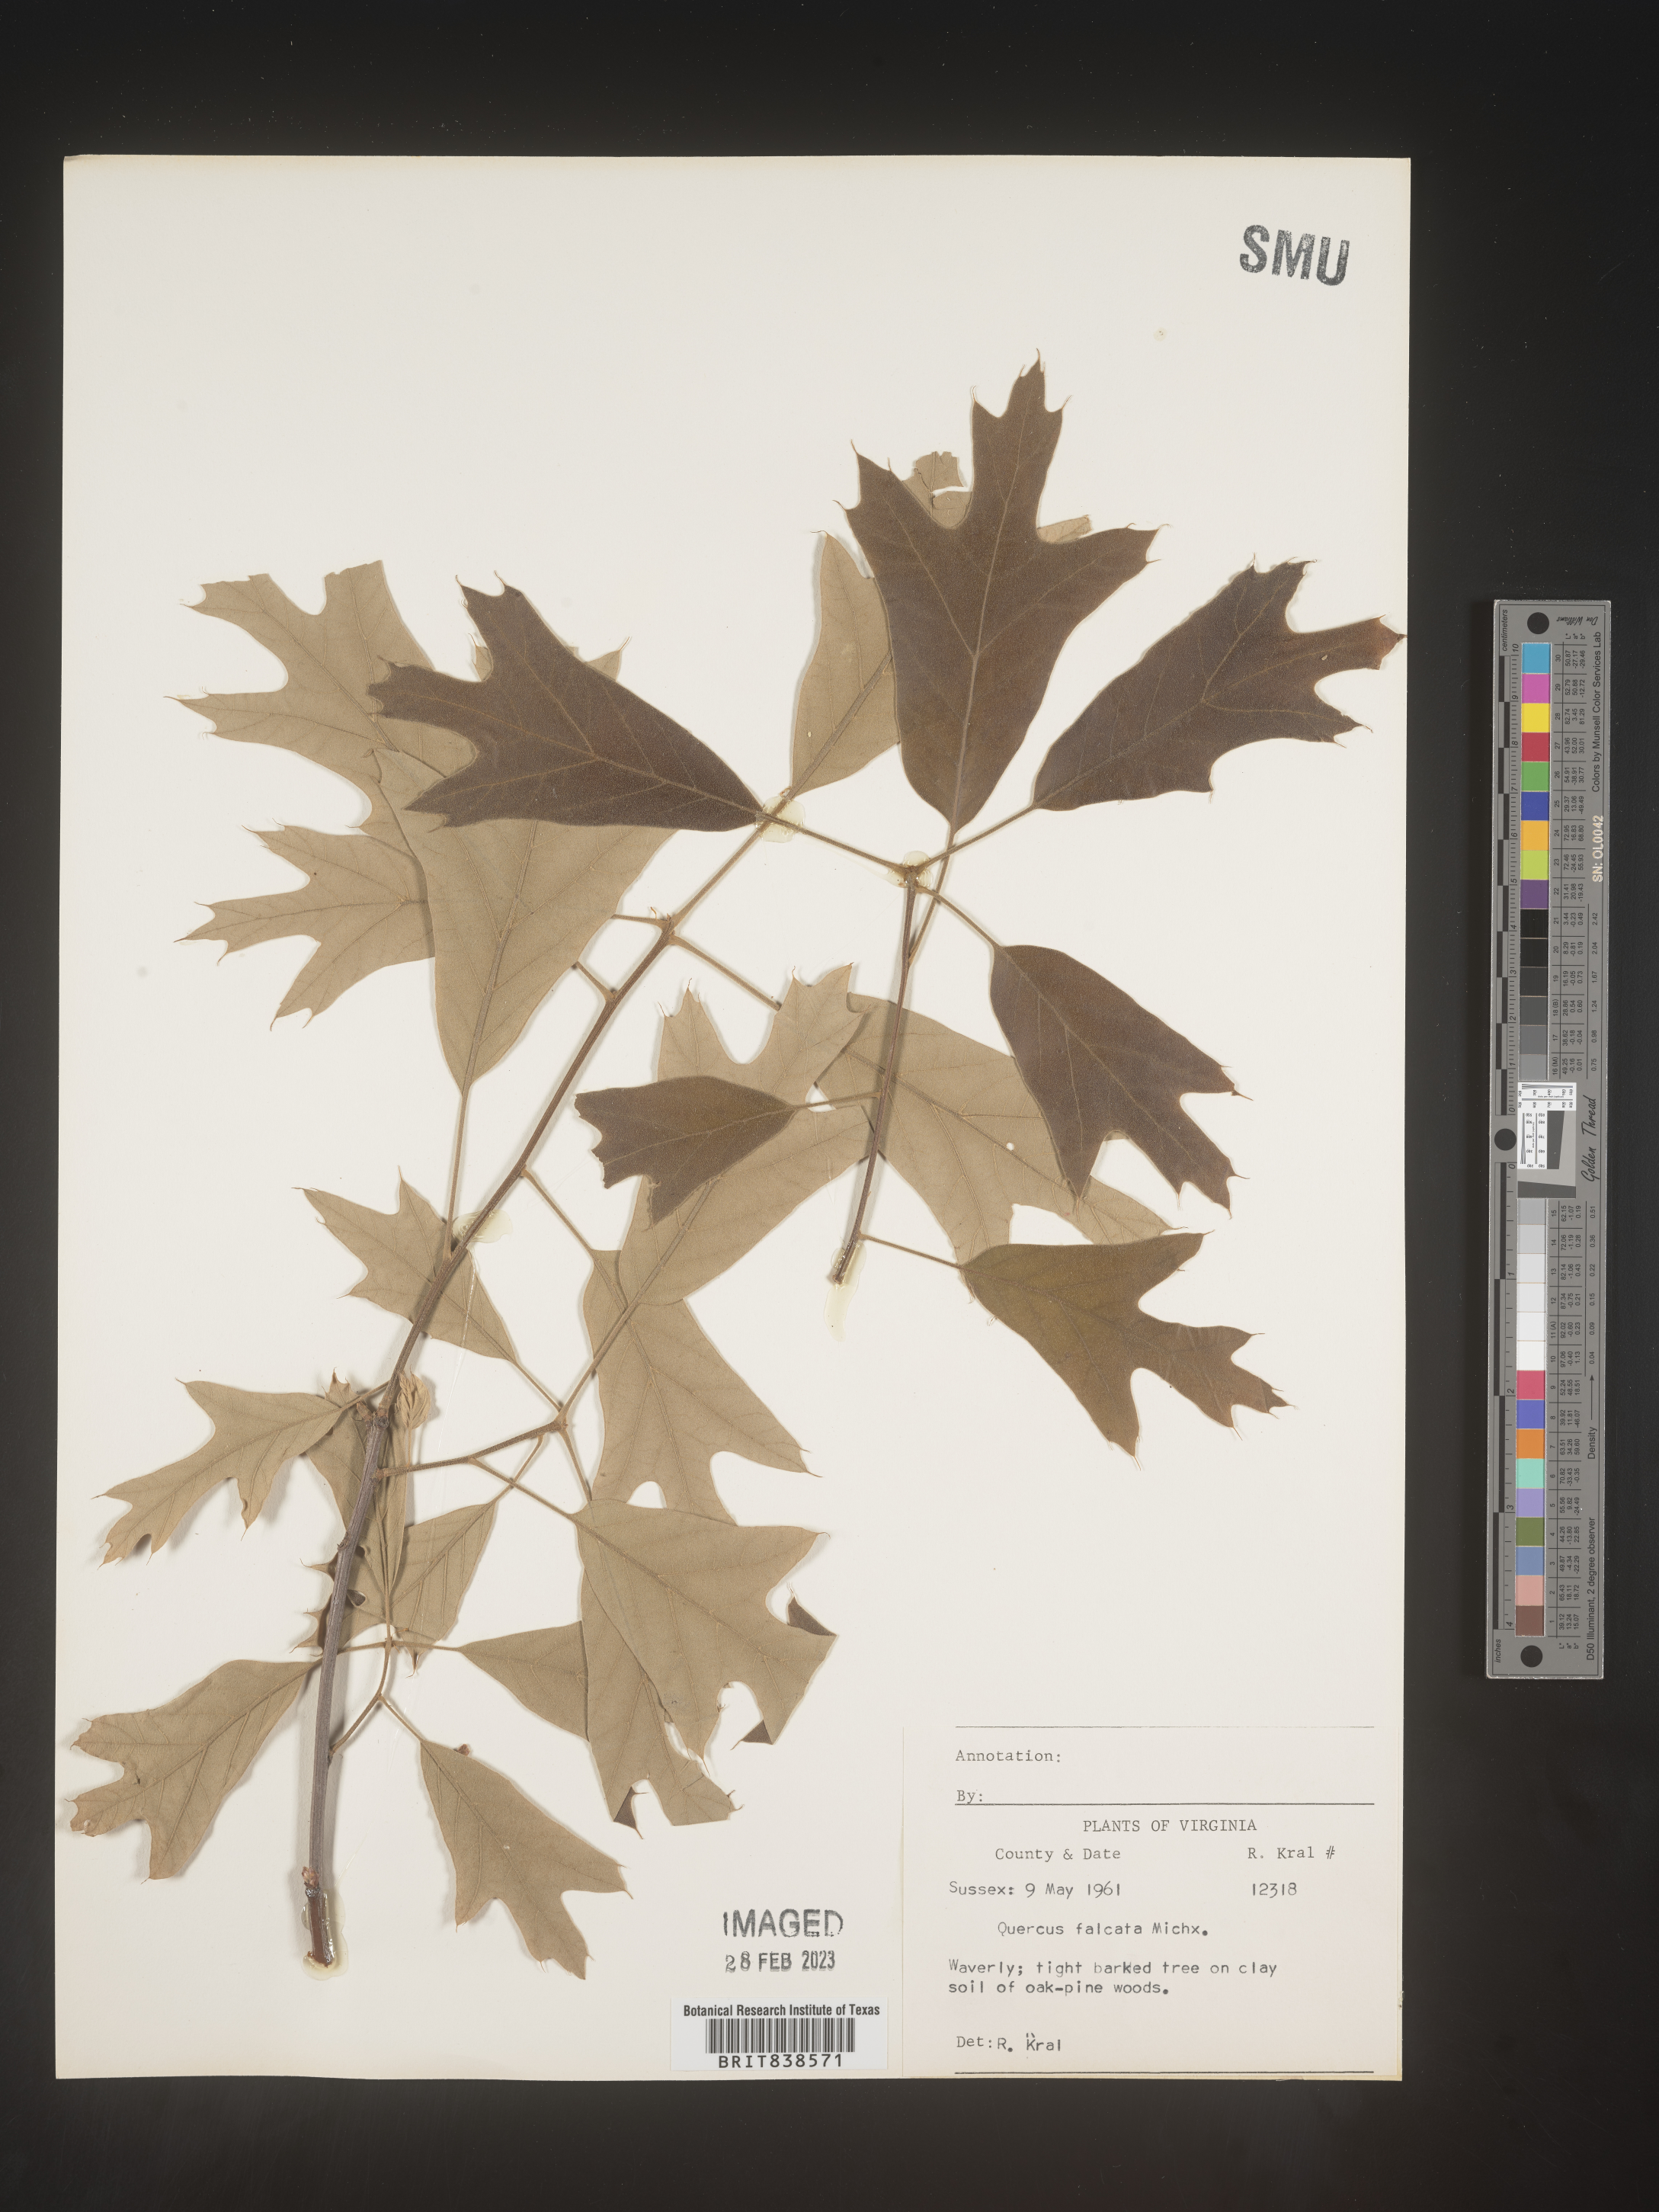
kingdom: Plantae
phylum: Tracheophyta
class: Magnoliopsida
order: Fagales
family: Fagaceae
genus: Quercus
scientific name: Quercus falcata
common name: Southern red oak
